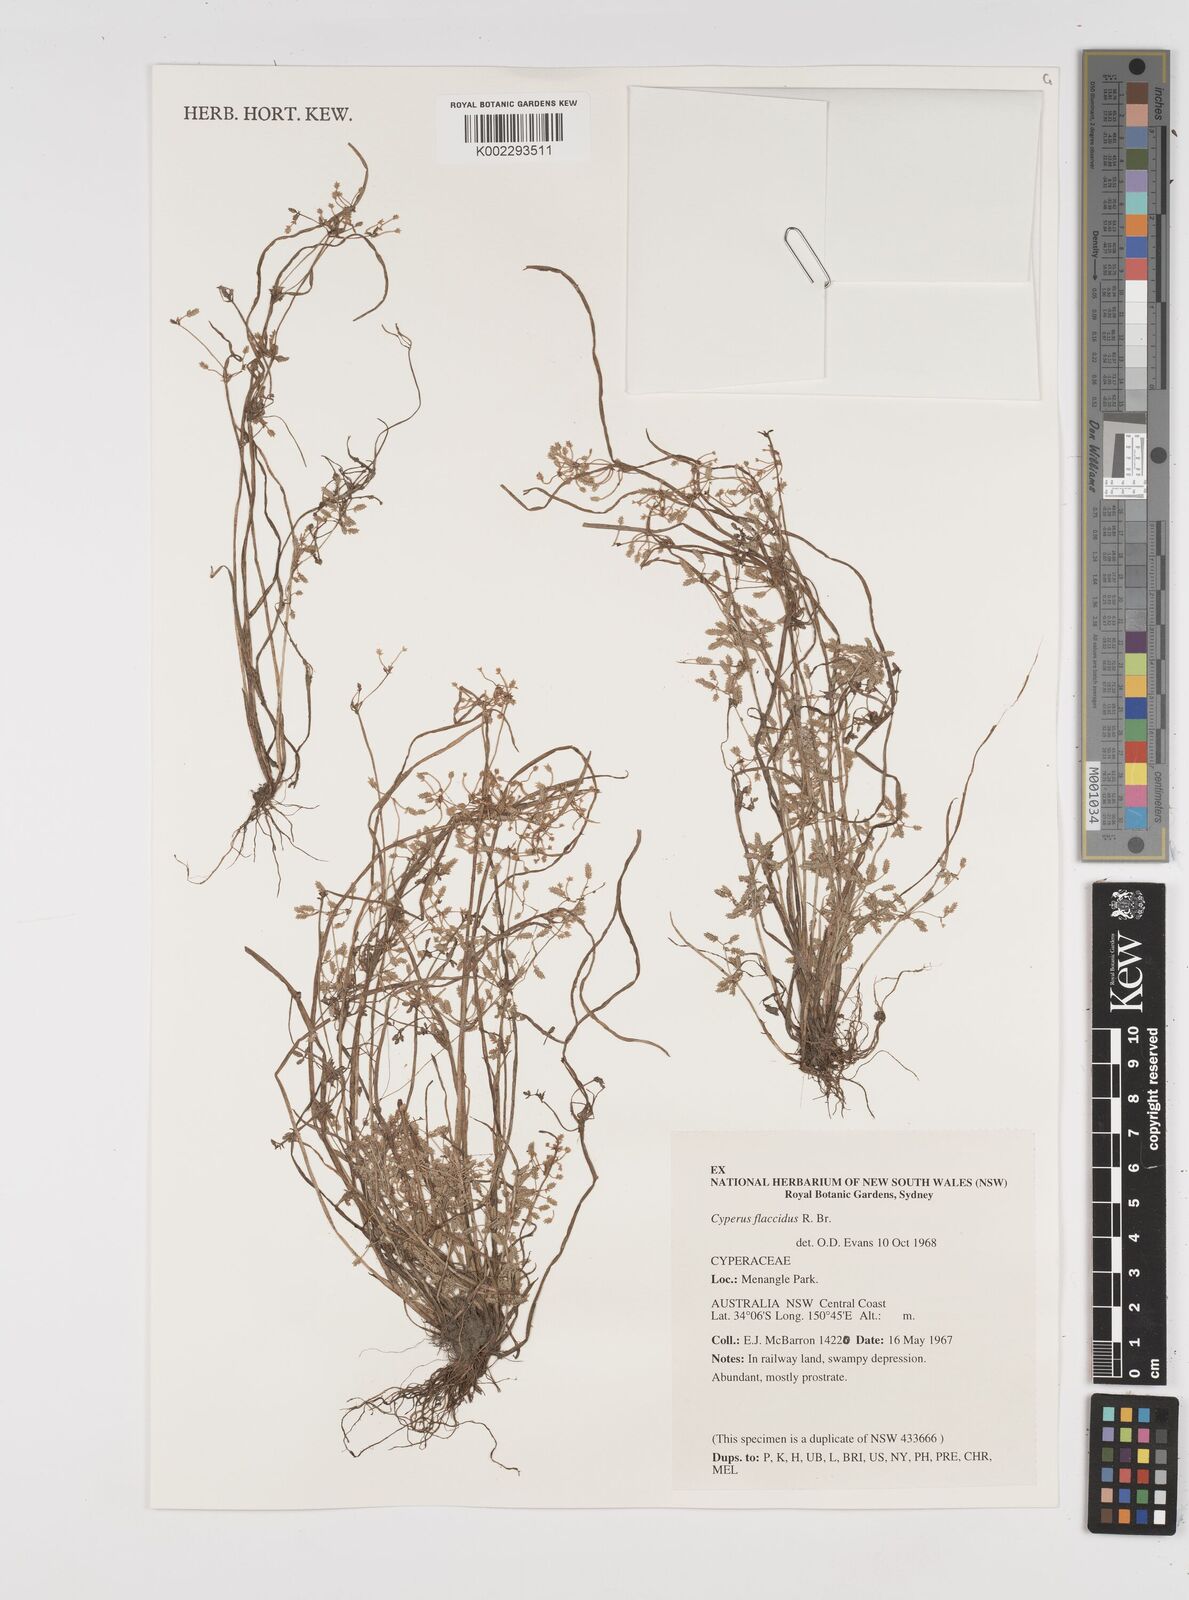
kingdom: Plantae
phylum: Tracheophyta
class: Liliopsida
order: Poales
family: Cyperaceae
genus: Cyperus
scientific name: Cyperus flaccidus
